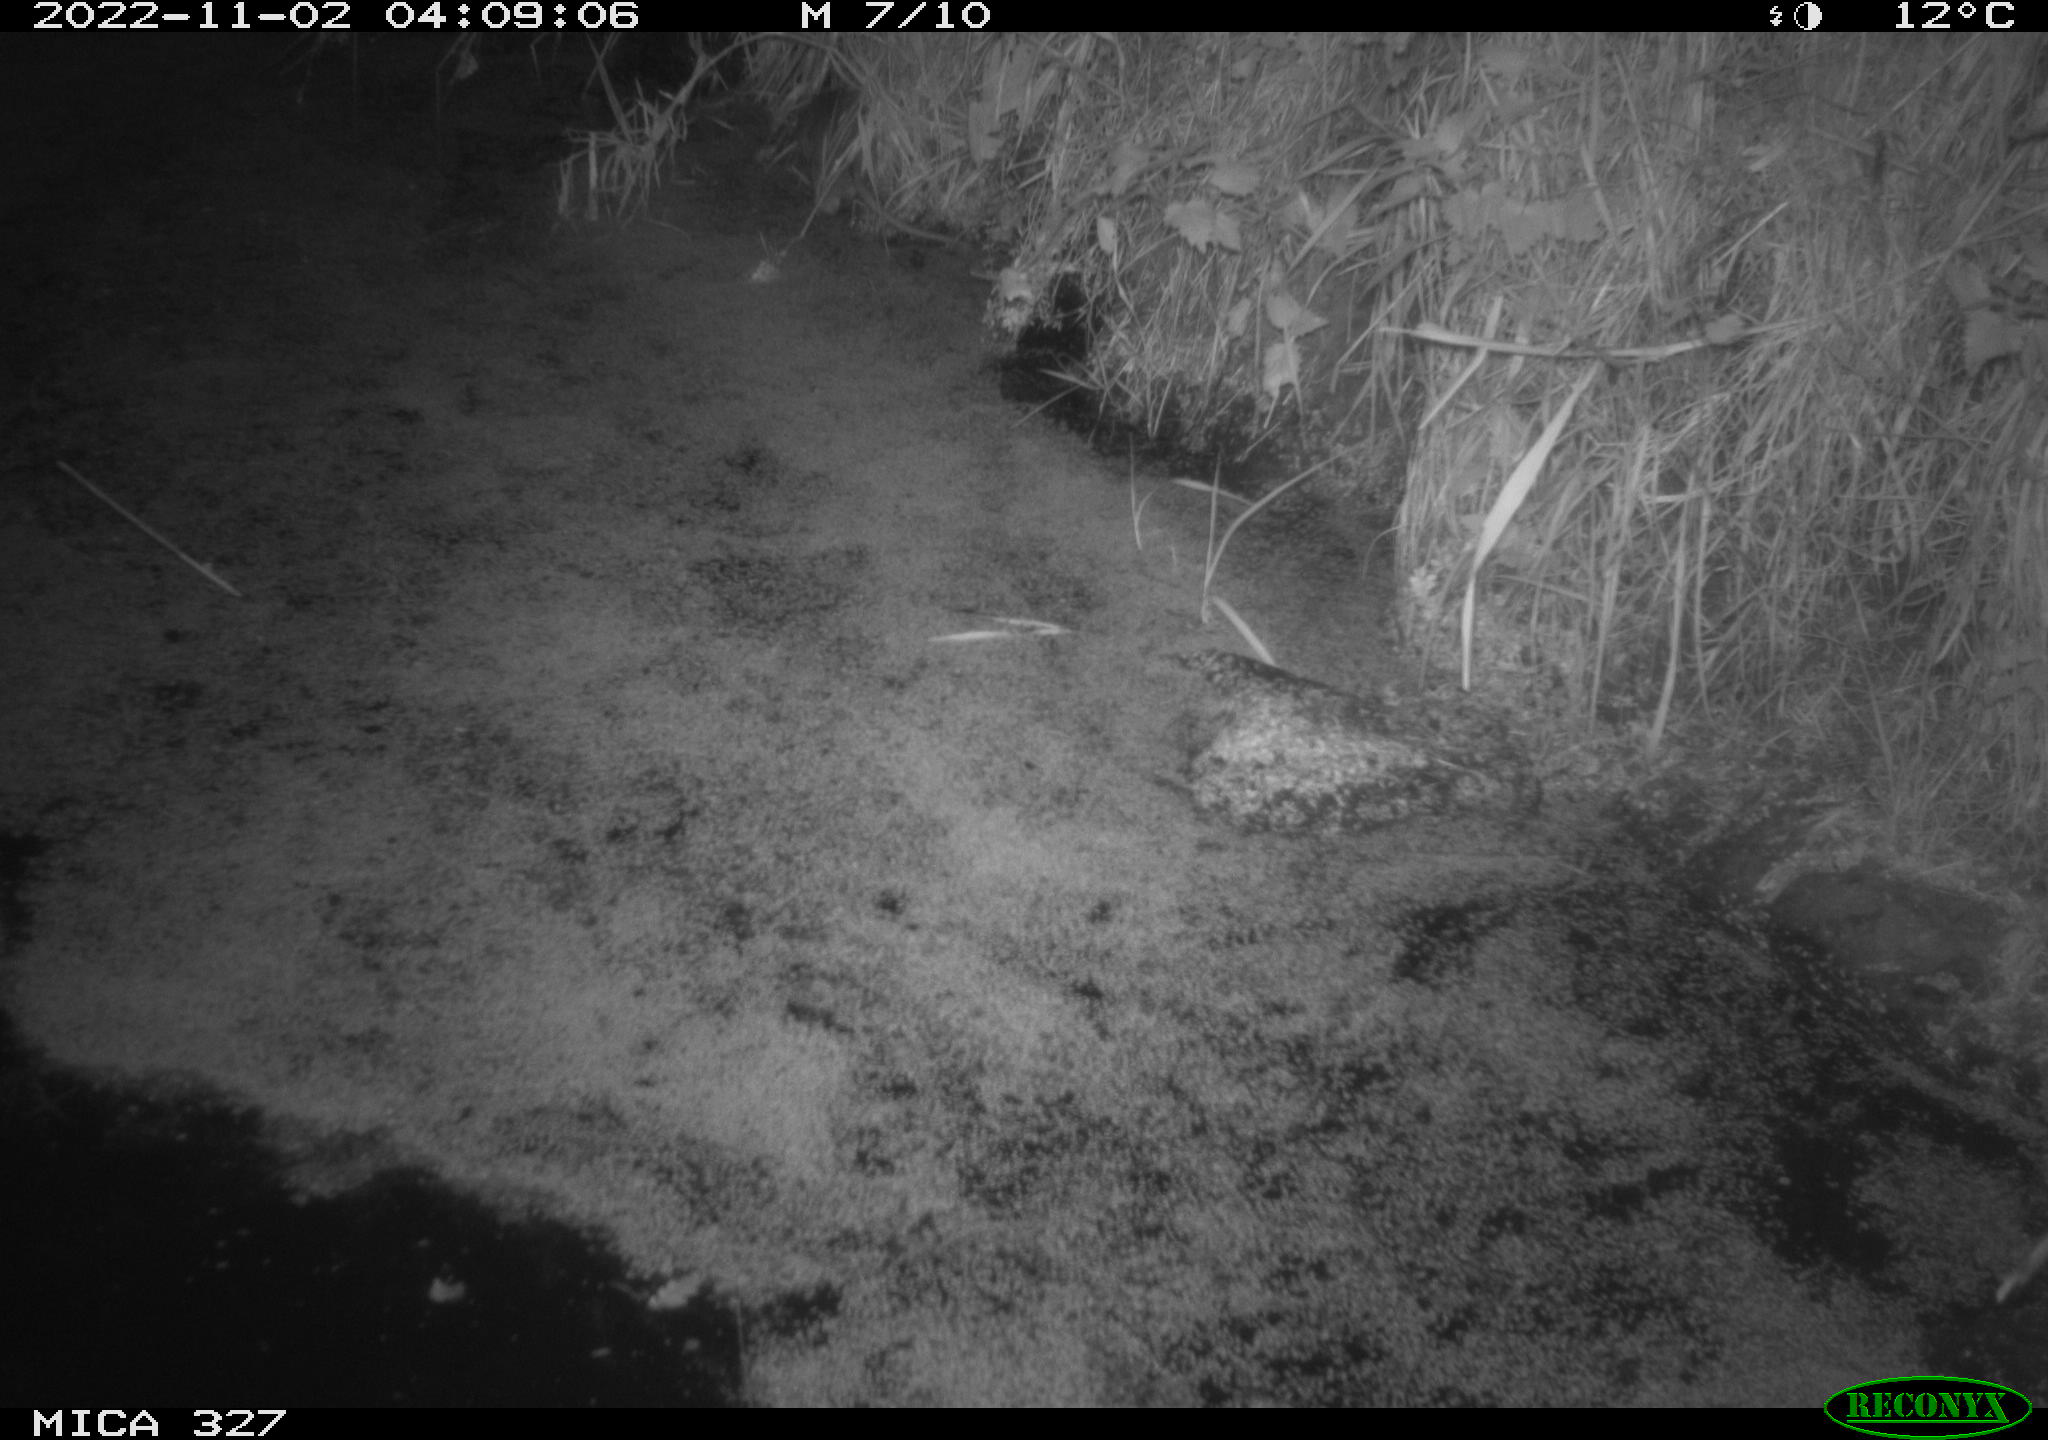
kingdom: Animalia
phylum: Chordata
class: Mammalia
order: Rodentia
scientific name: Rodentia
